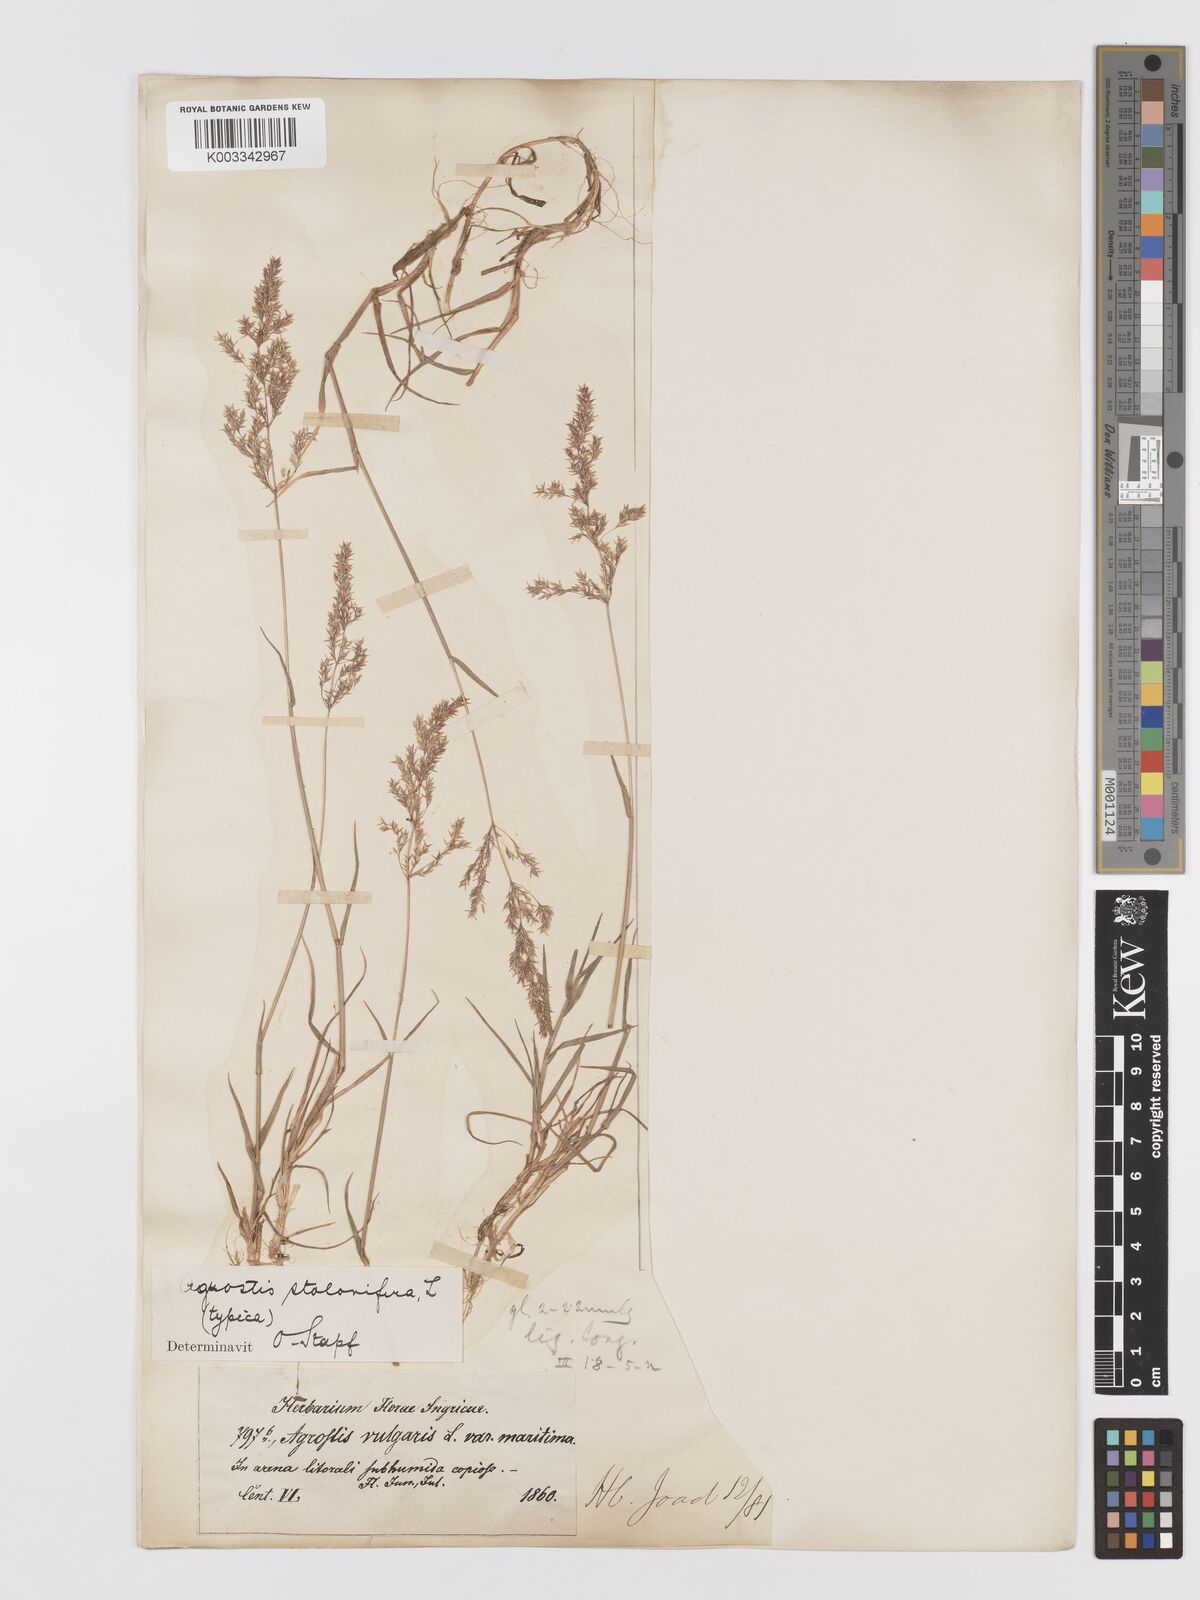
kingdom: Plantae
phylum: Tracheophyta
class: Liliopsida
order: Poales
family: Poaceae
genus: Agrostis
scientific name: Agrostis stolonifera
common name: Creeping bentgrass
